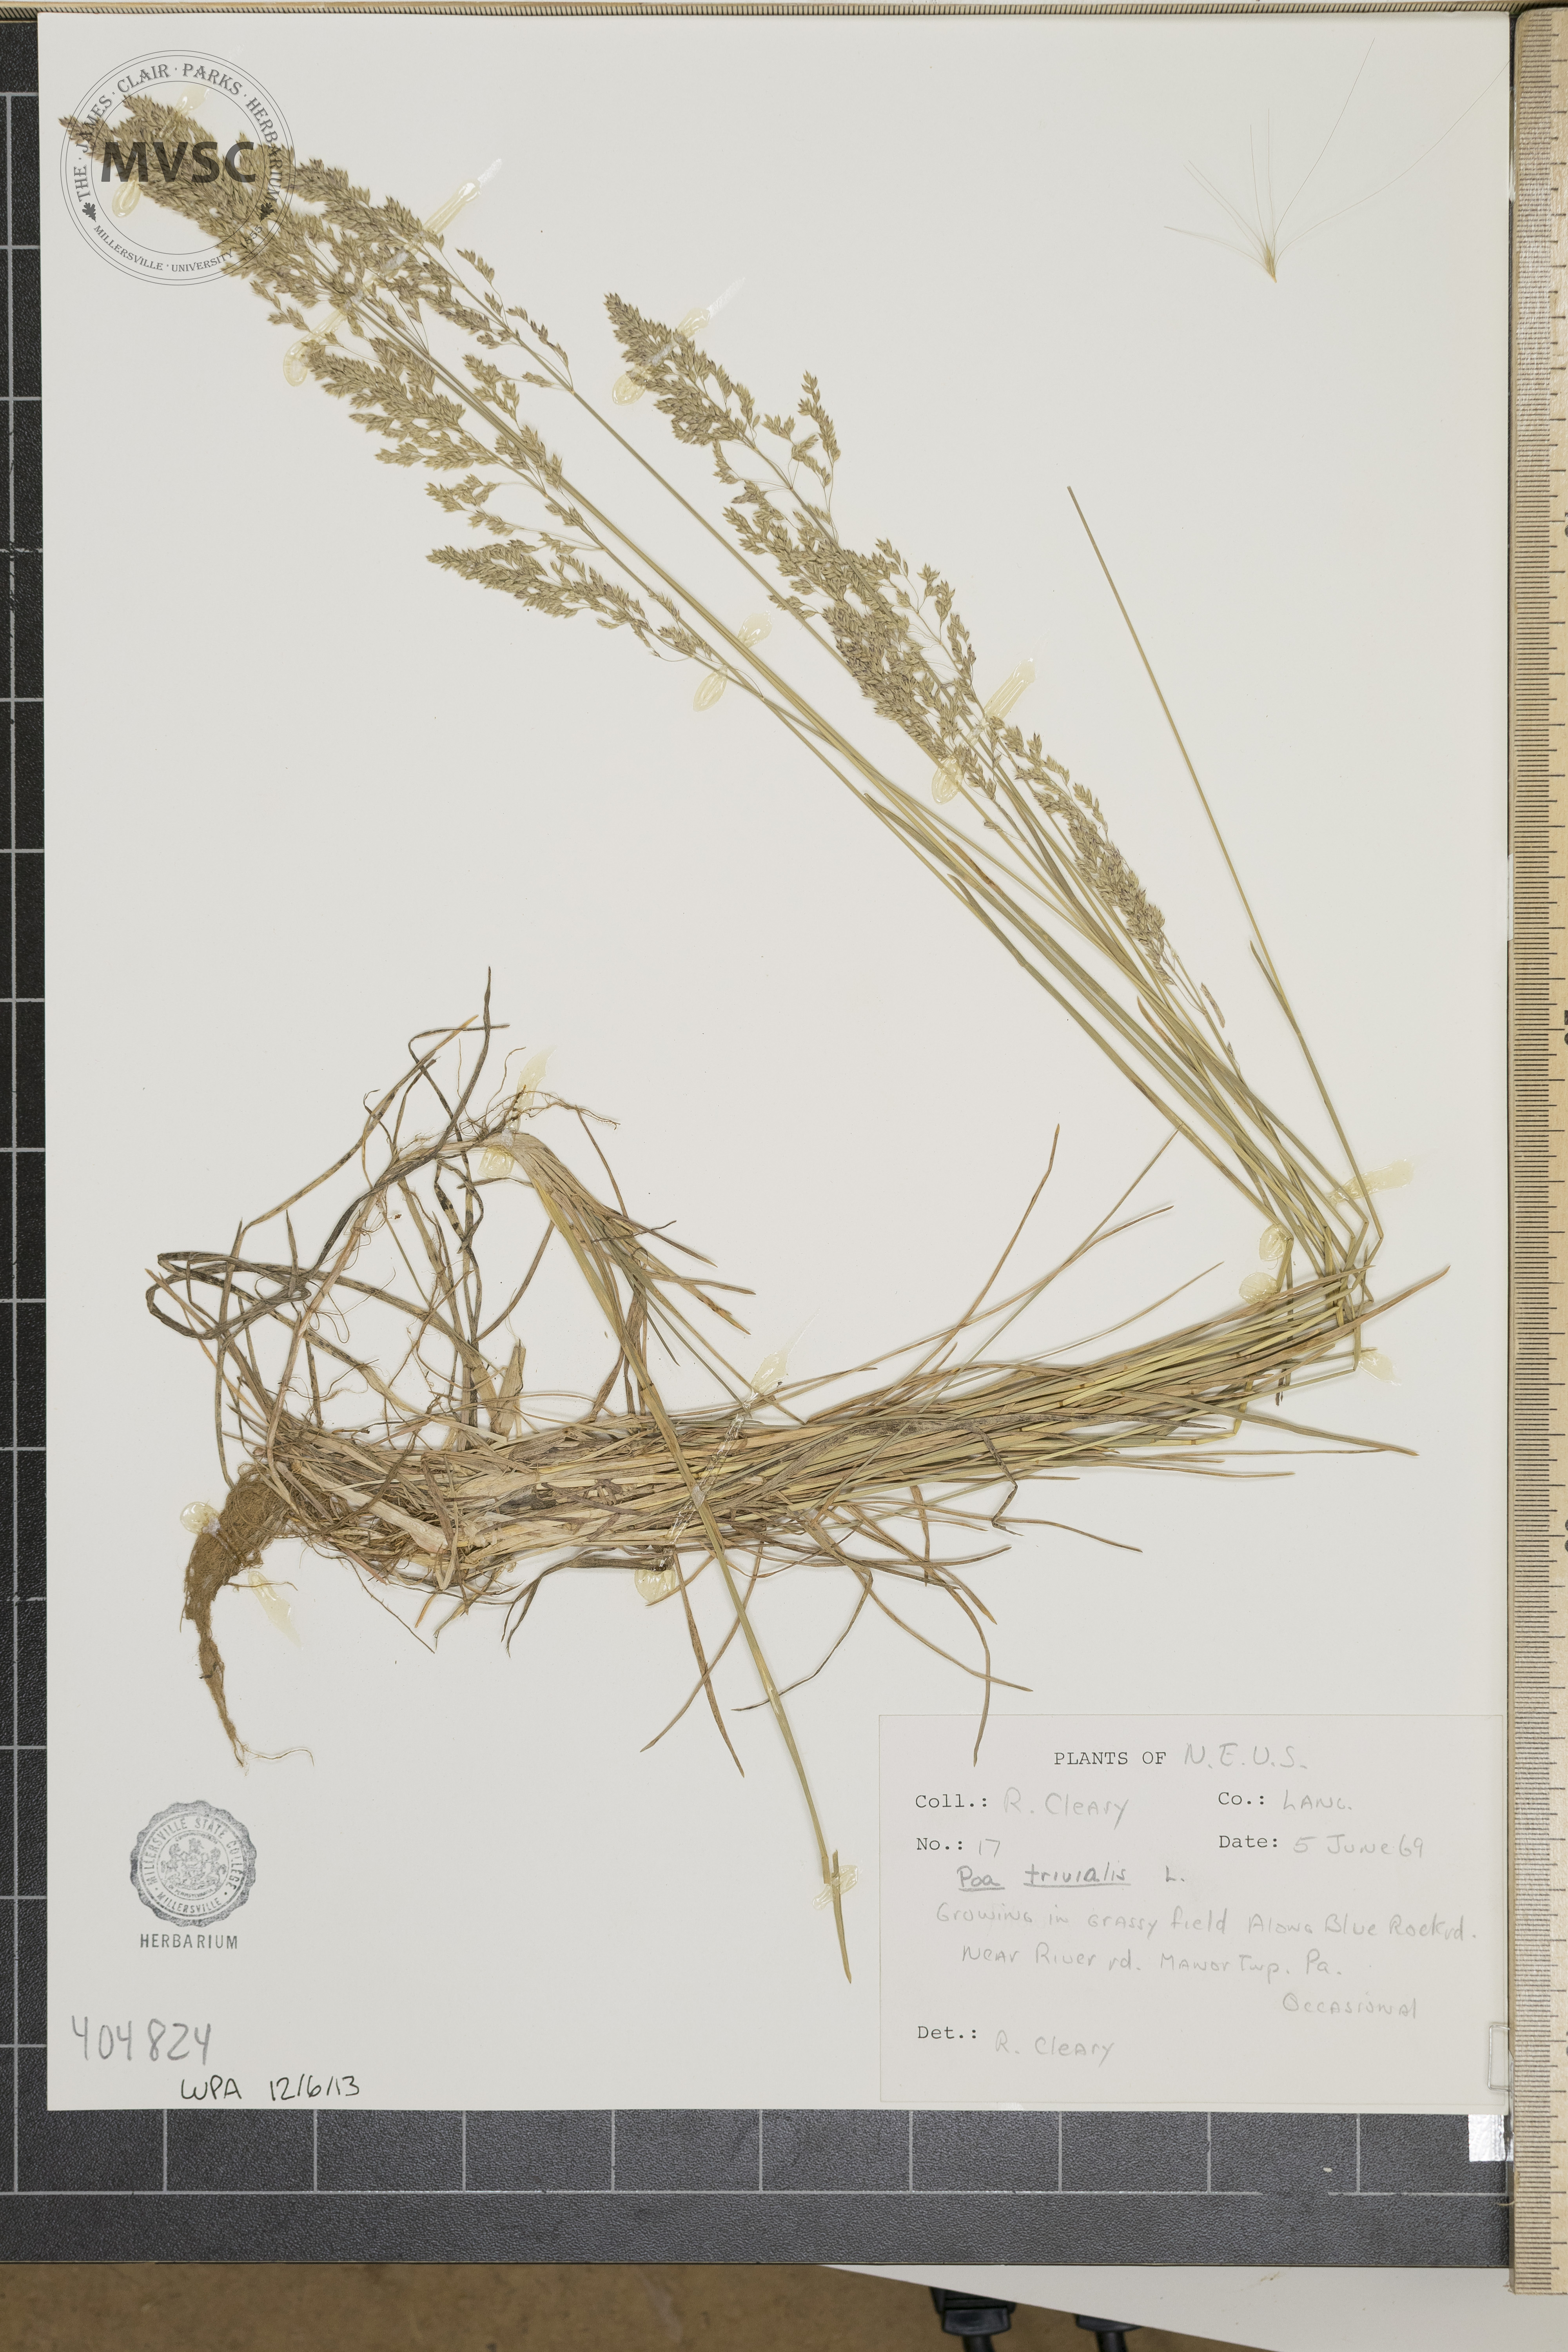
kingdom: Plantae
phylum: Tracheophyta
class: Liliopsida
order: Poales
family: Poaceae
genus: Poa
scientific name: Poa trivialis
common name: Rough bluegrass
